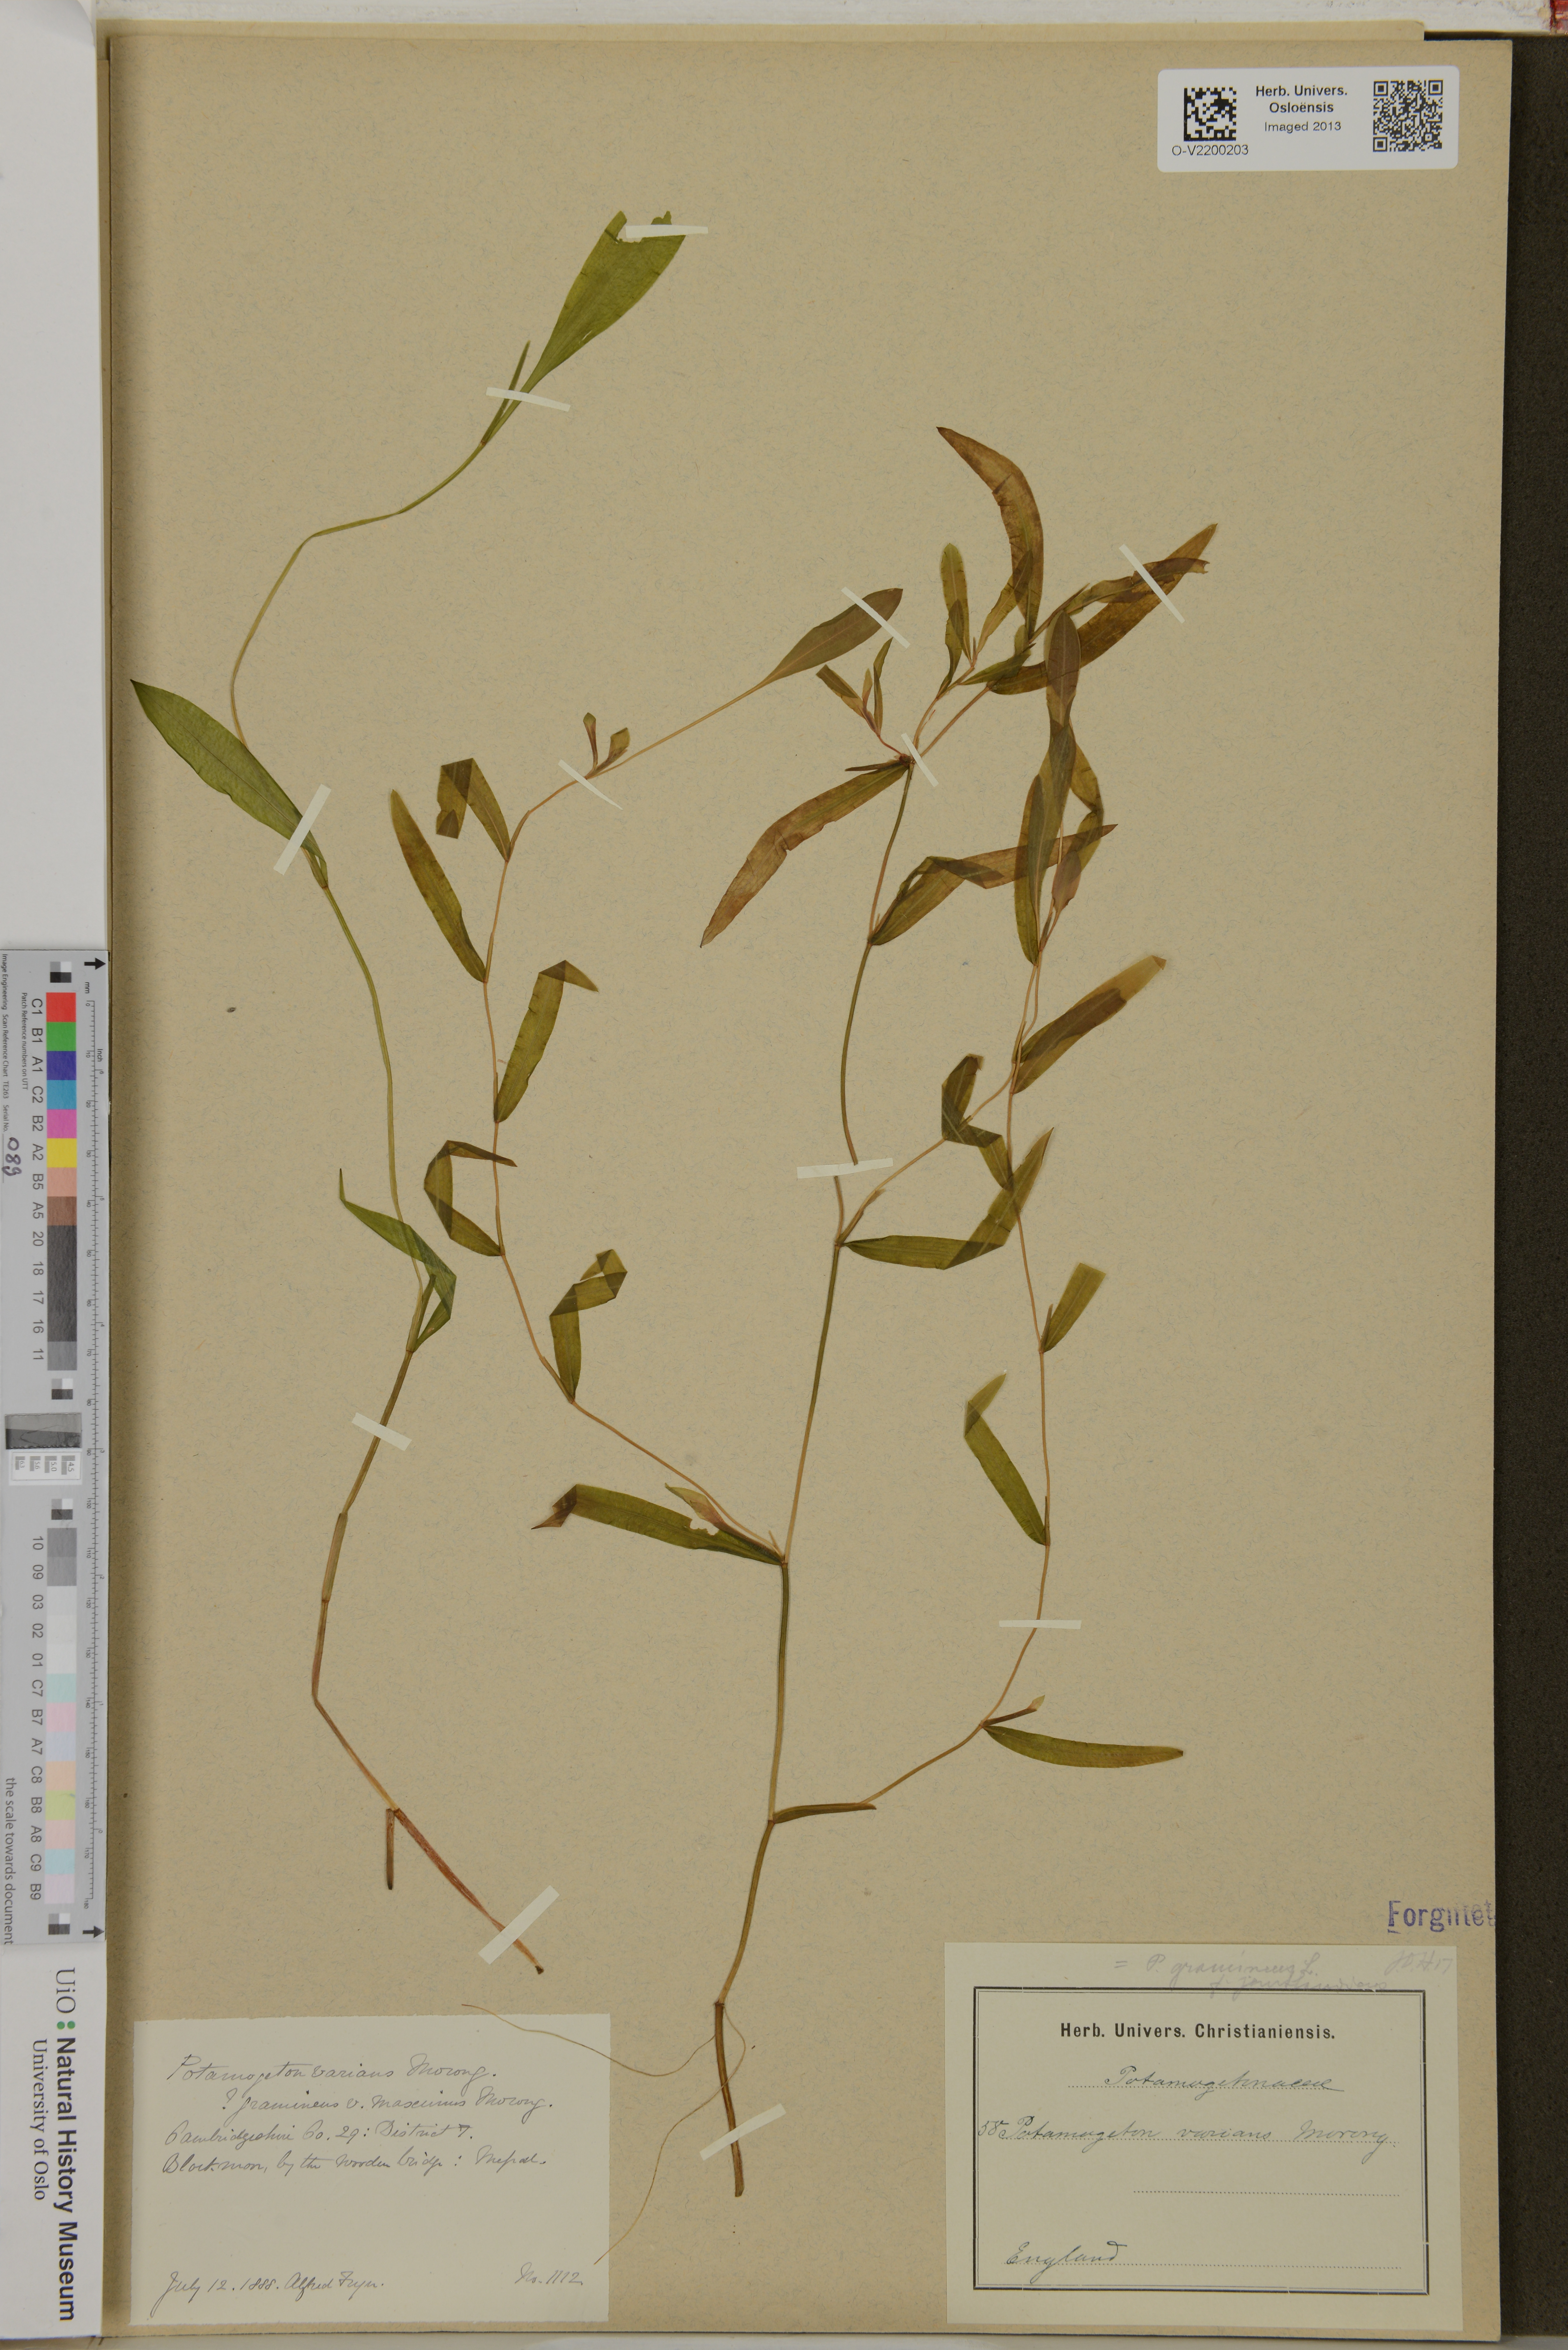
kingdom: Plantae
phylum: Tracheophyta
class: Liliopsida
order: Alismatales
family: Potamogetonaceae
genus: Potamogeton
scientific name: Potamogeton
